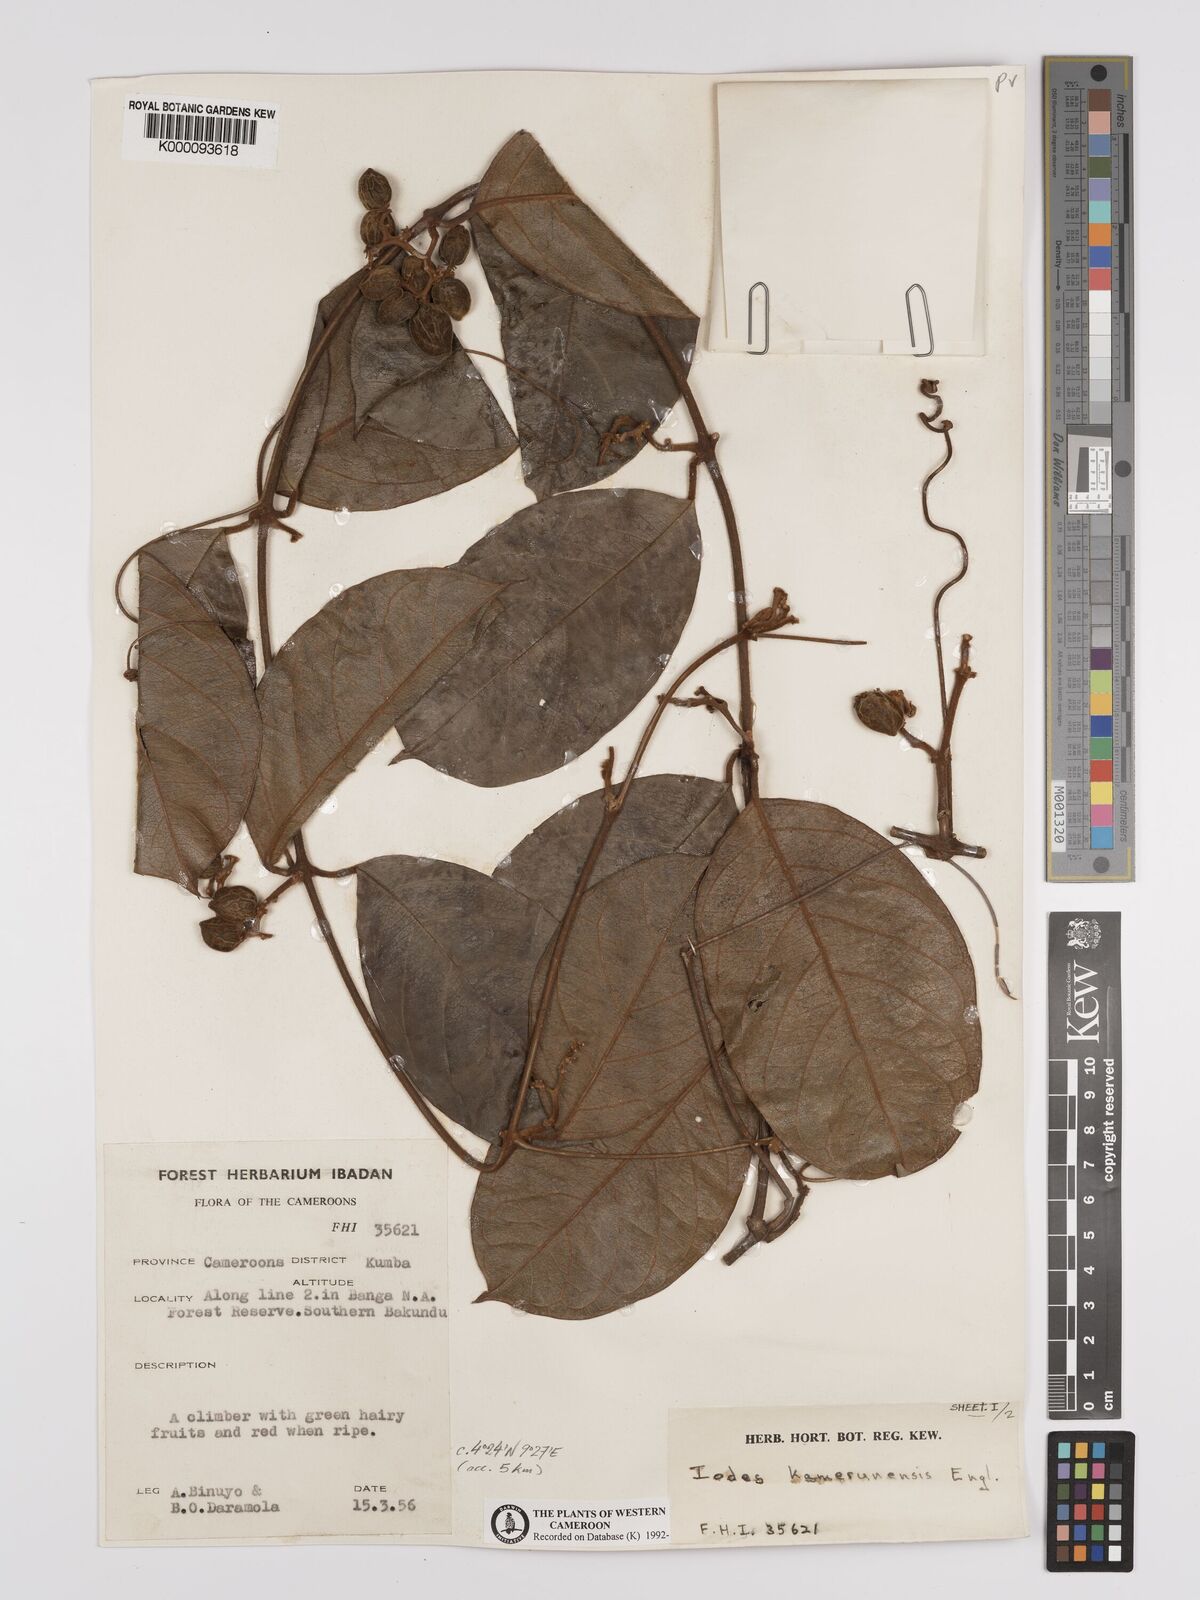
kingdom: Plantae
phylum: Tracheophyta
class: Magnoliopsida
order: Icacinales
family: Icacinaceae
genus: Iodes
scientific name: Iodes kamerunensis
